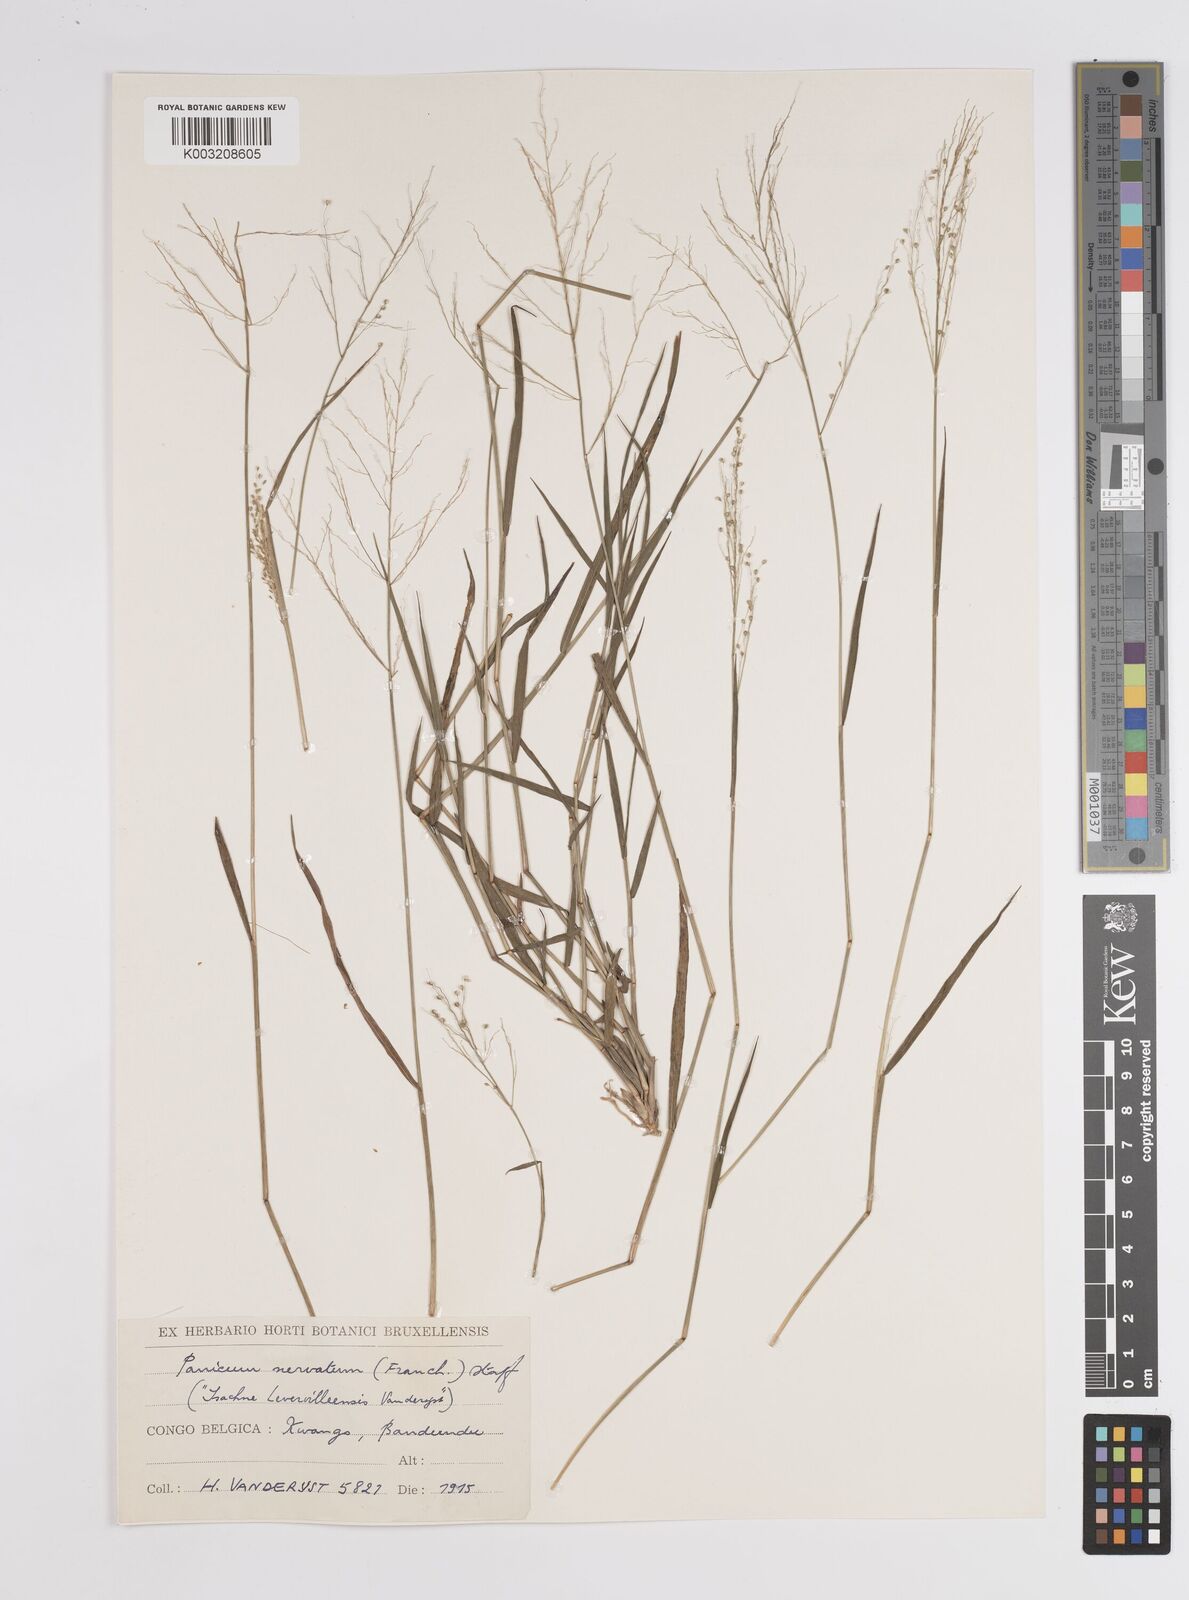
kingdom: Plantae
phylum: Tracheophyta
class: Liliopsida
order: Poales
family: Poaceae
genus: Trichanthecium
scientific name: Trichanthecium nervatum
